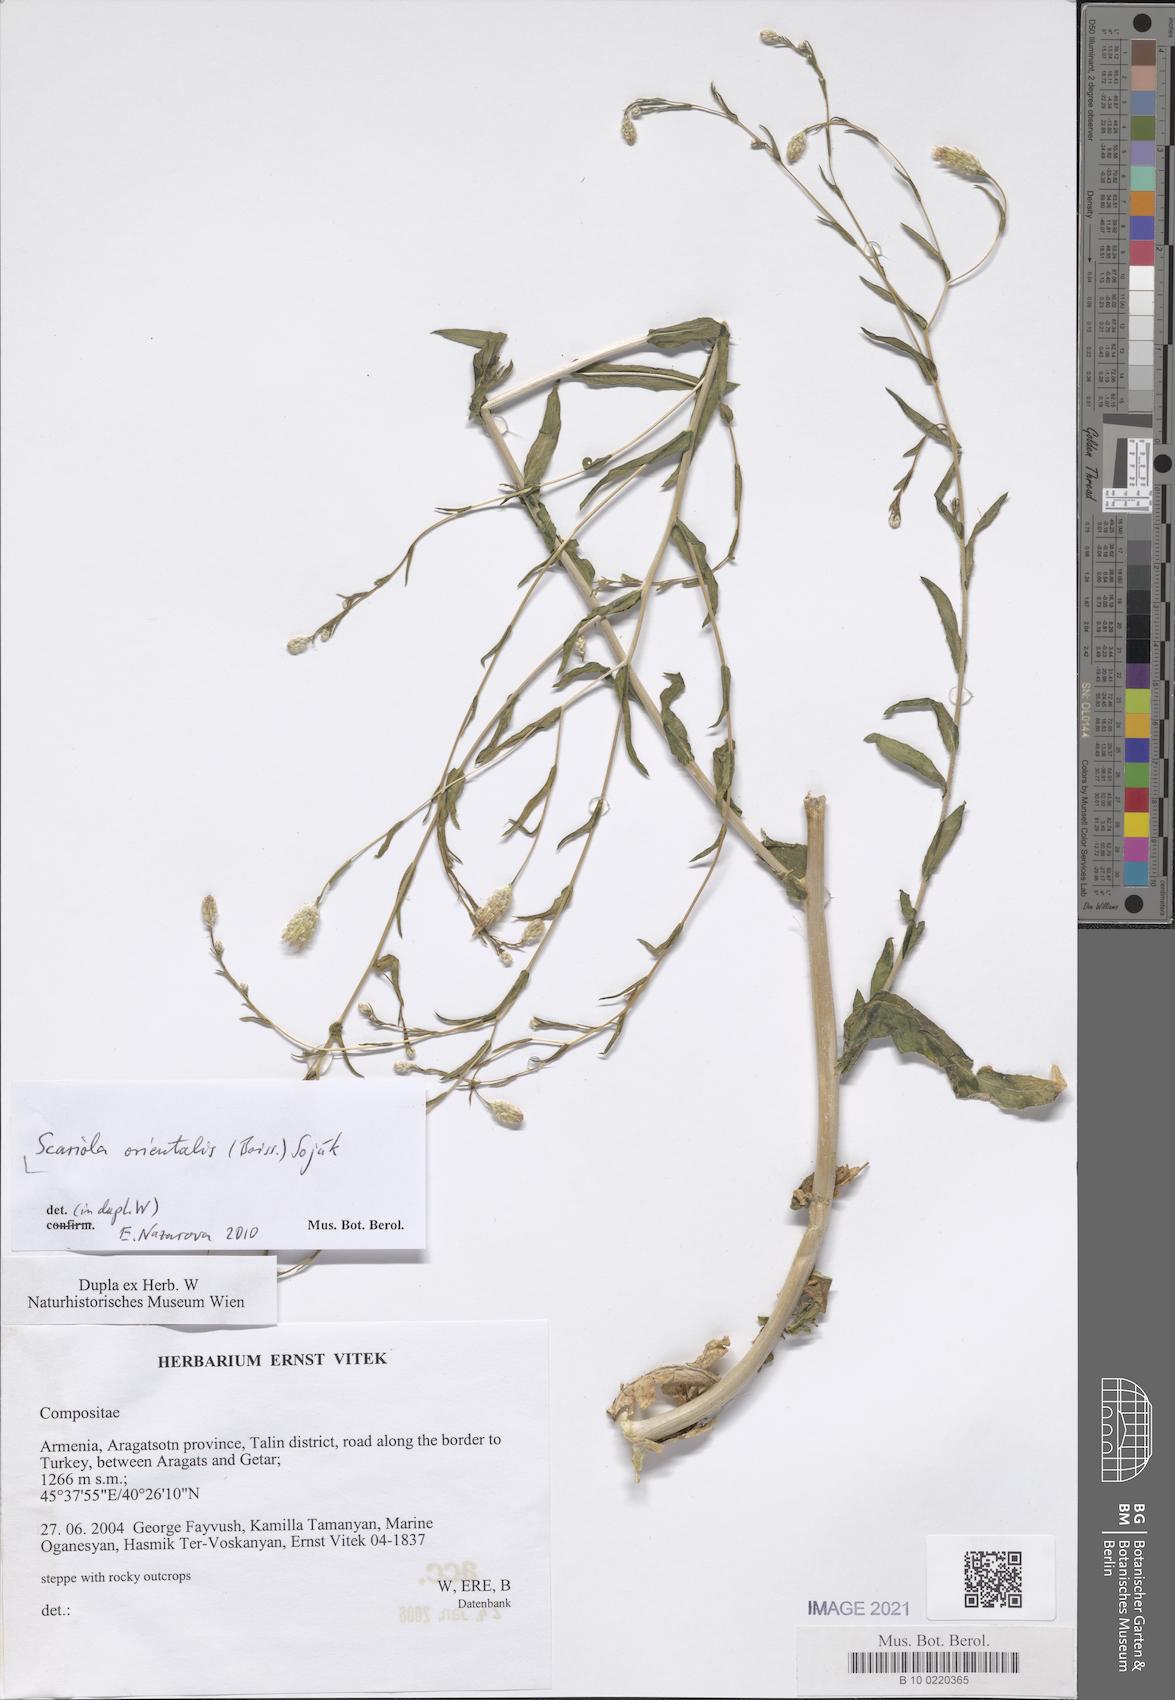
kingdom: Plantae
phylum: Tracheophyta
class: Magnoliopsida
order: Asterales
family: Asteraceae
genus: Lactuca
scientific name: Lactuca orientalis
